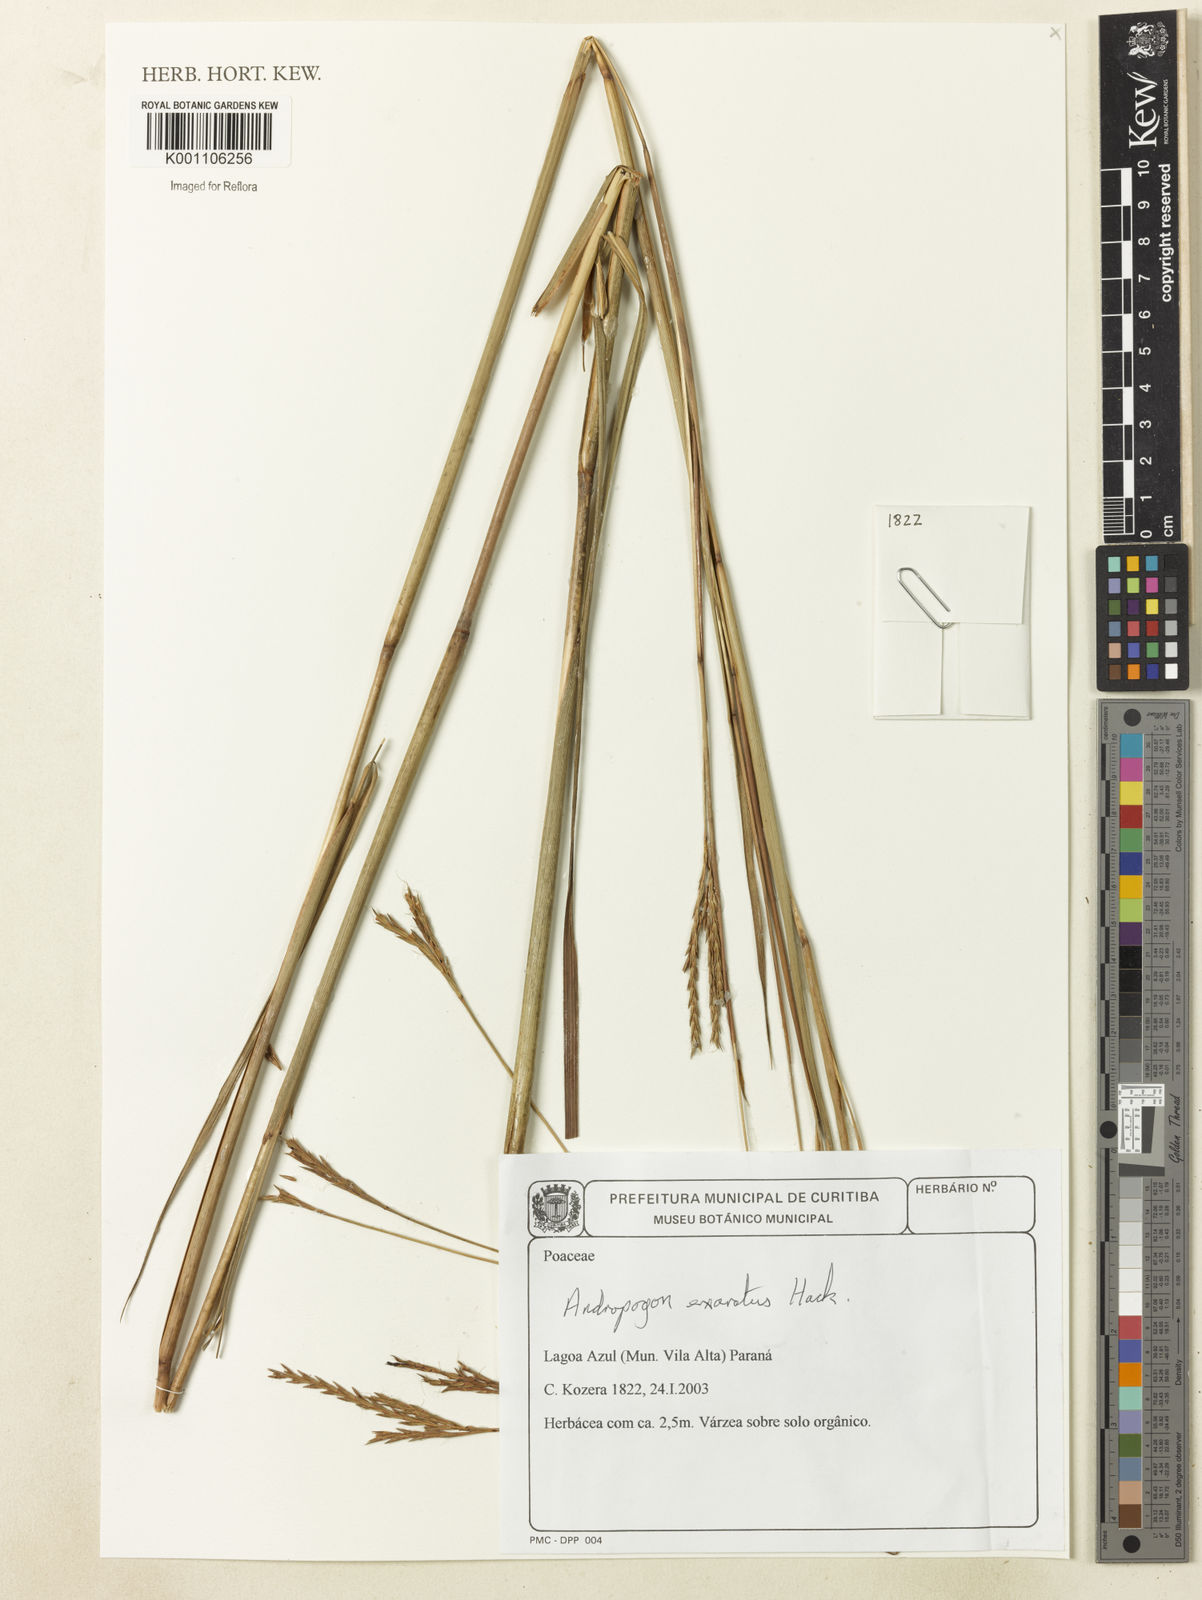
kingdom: Plantae
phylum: Tracheophyta
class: Liliopsida
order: Poales
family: Poaceae
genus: Cymbopogon
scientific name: Cymbopogon procerus
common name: Lemongrass
